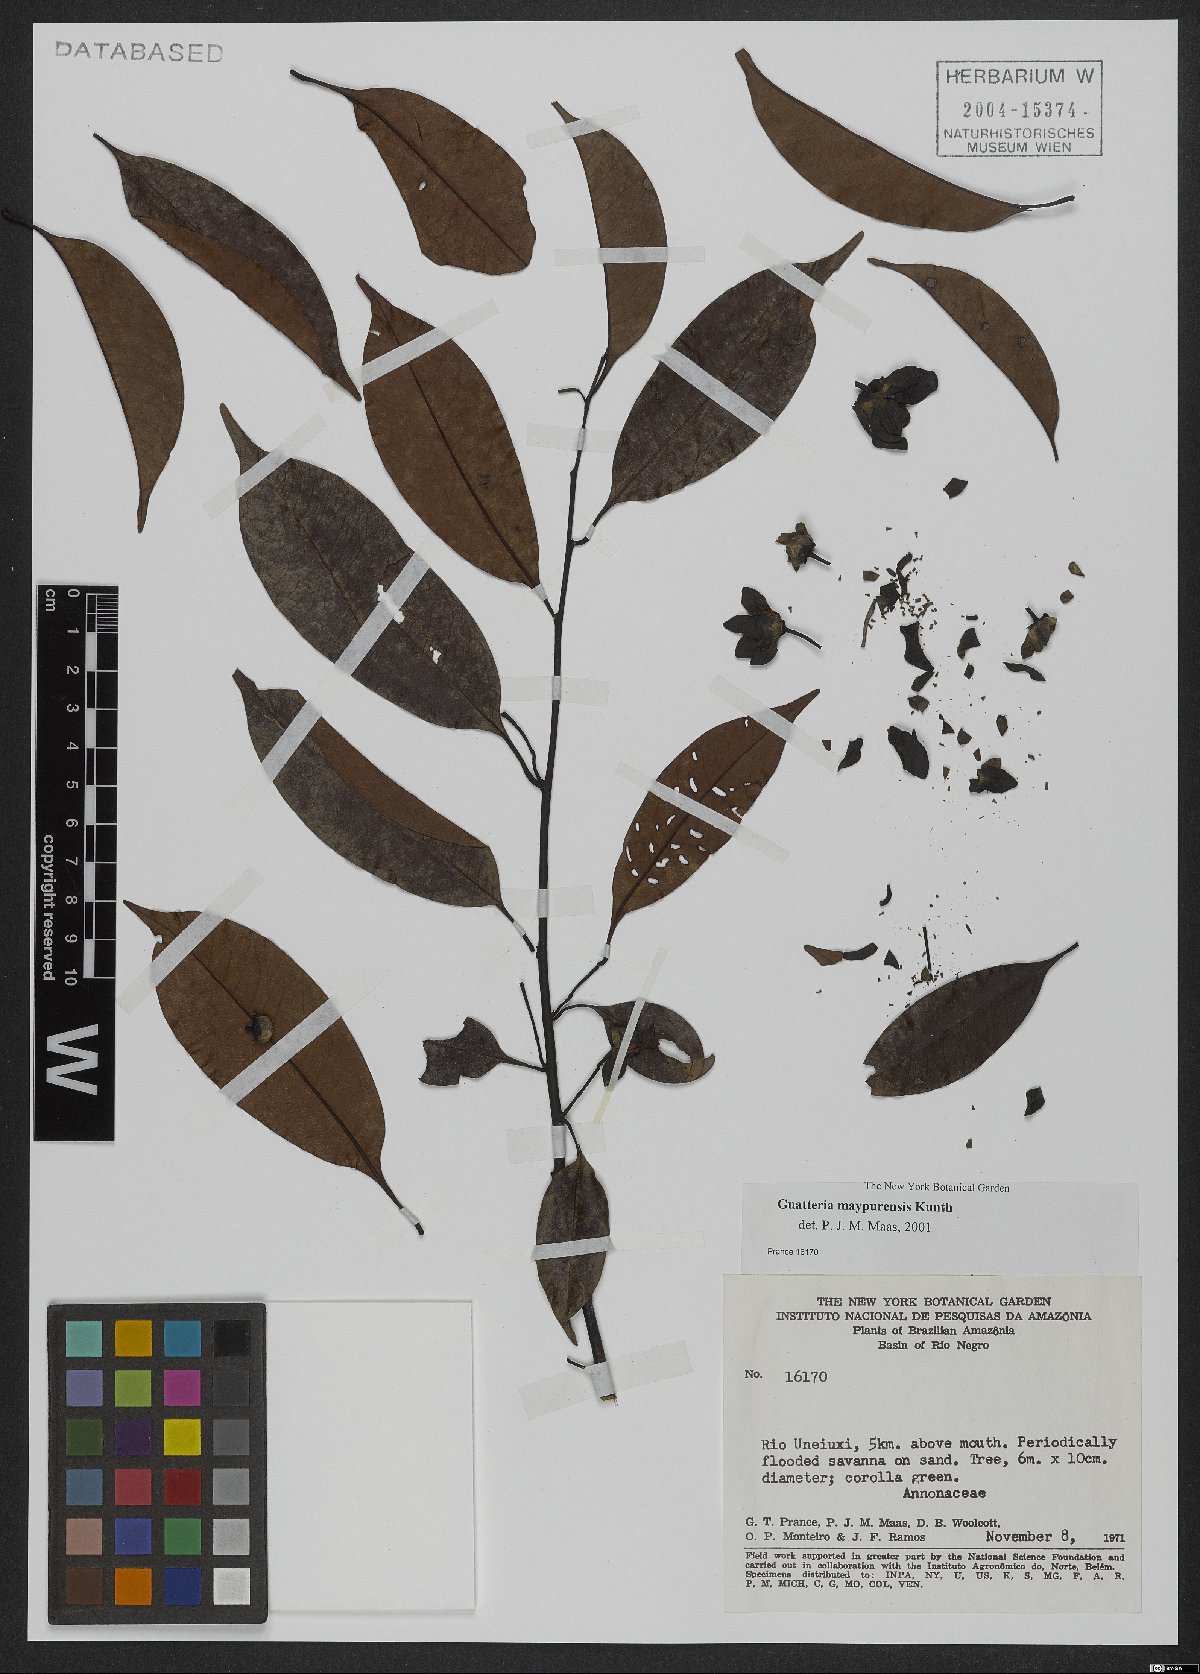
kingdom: Plantae
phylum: Tracheophyta
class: Magnoliopsida
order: Magnoliales
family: Annonaceae
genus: Guatteria
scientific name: Guatteria maypurensis
